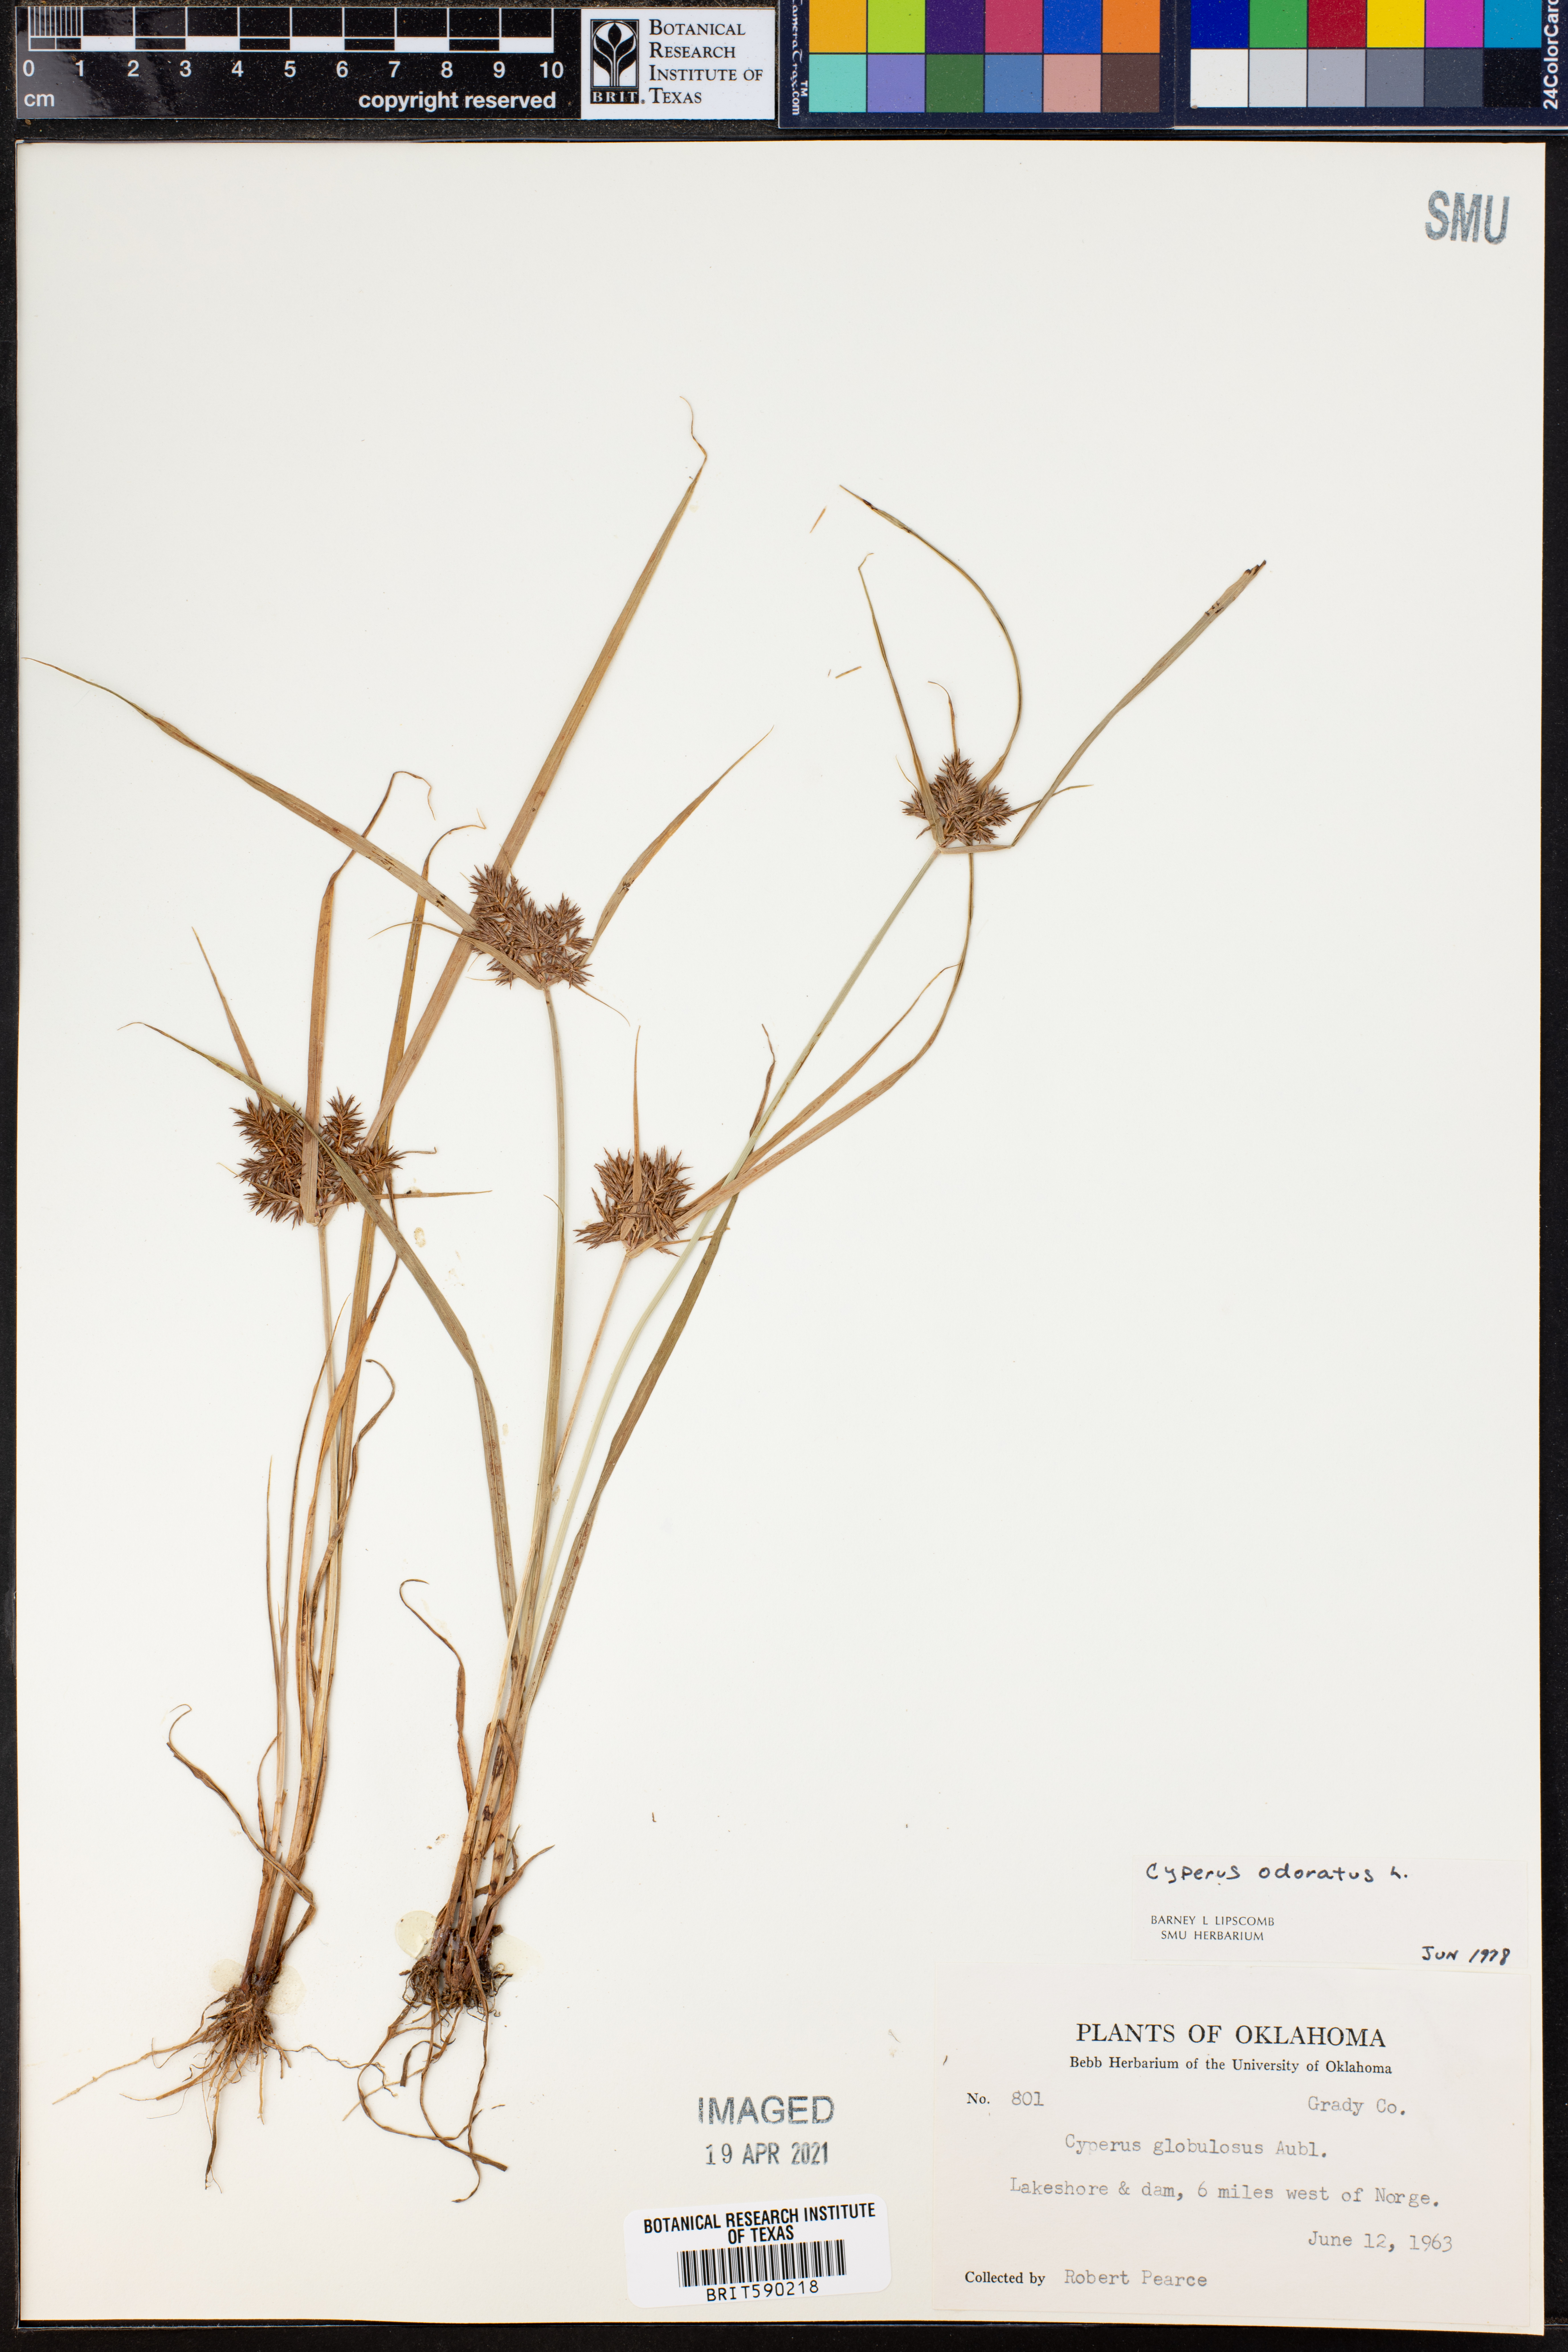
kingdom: Plantae
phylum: Tracheophyta
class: Liliopsida
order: Poales
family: Cyperaceae
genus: Cyperus
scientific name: Cyperus odoratus
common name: Fragrant flatsedge
